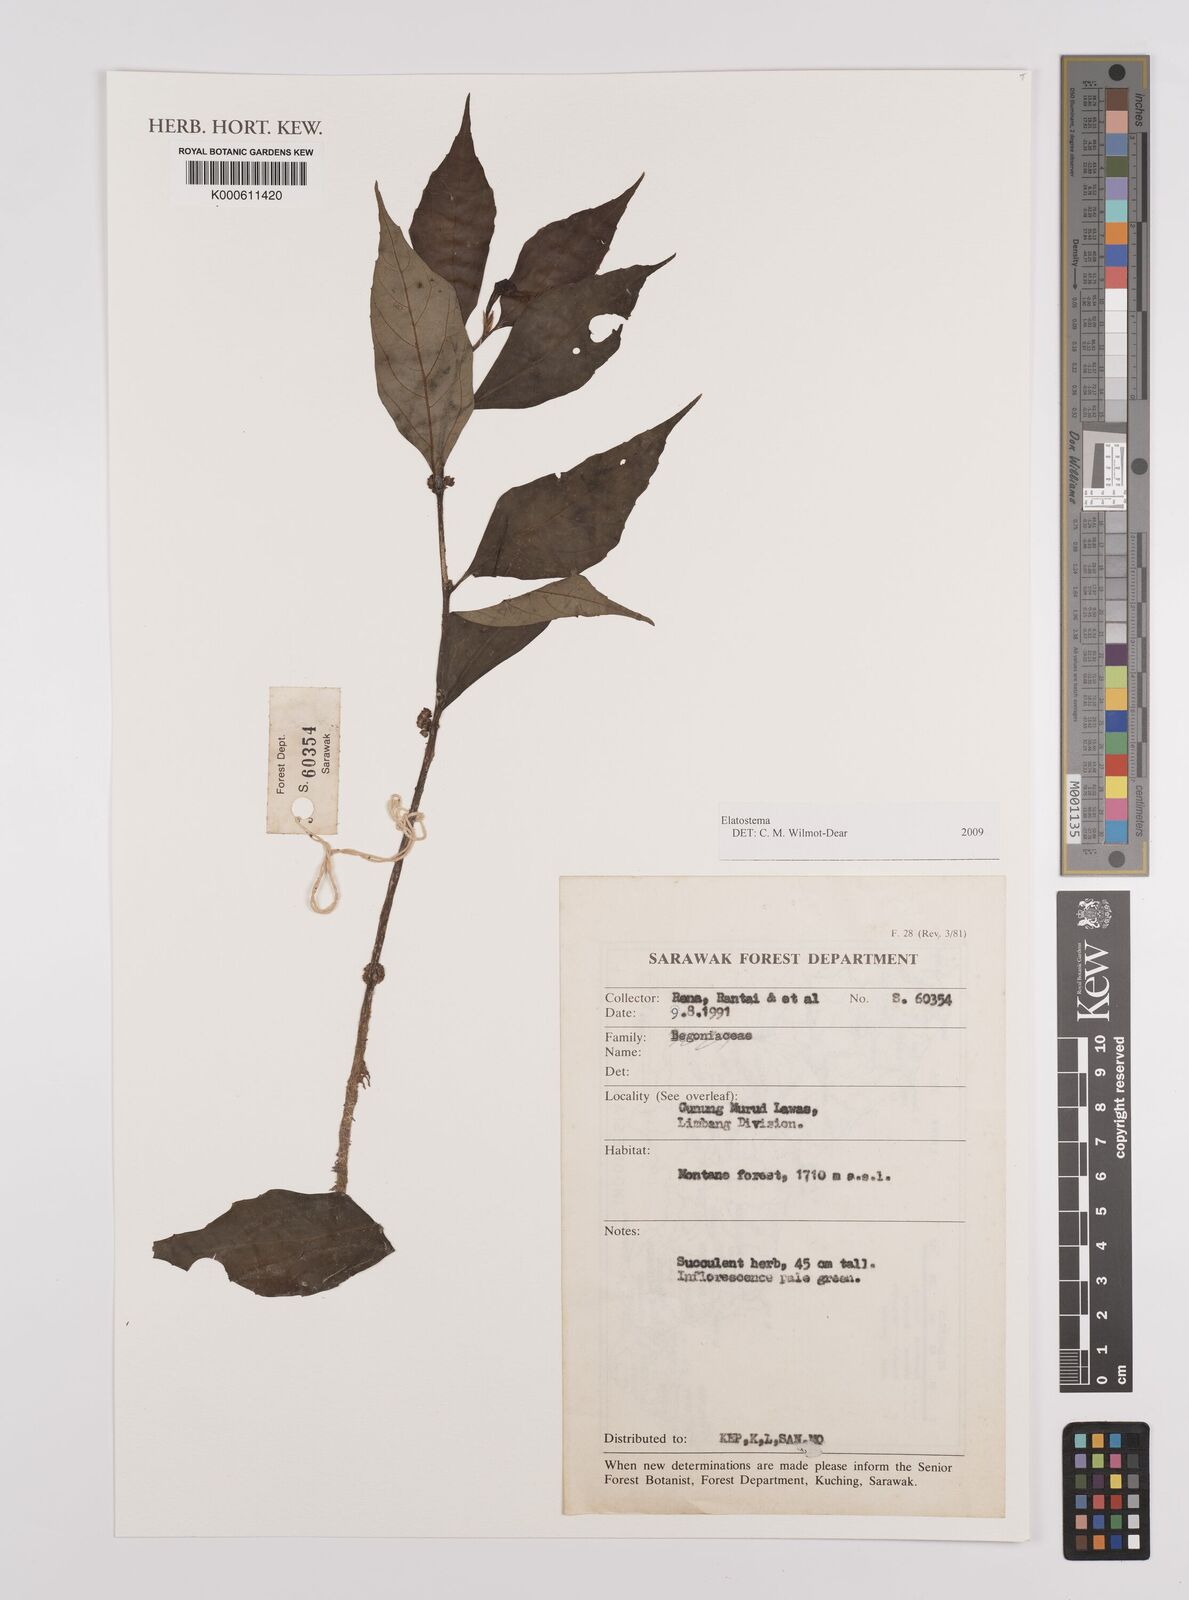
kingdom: Plantae
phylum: Tracheophyta
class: Magnoliopsida
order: Rosales
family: Urticaceae
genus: Elatostema
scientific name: Elatostema
